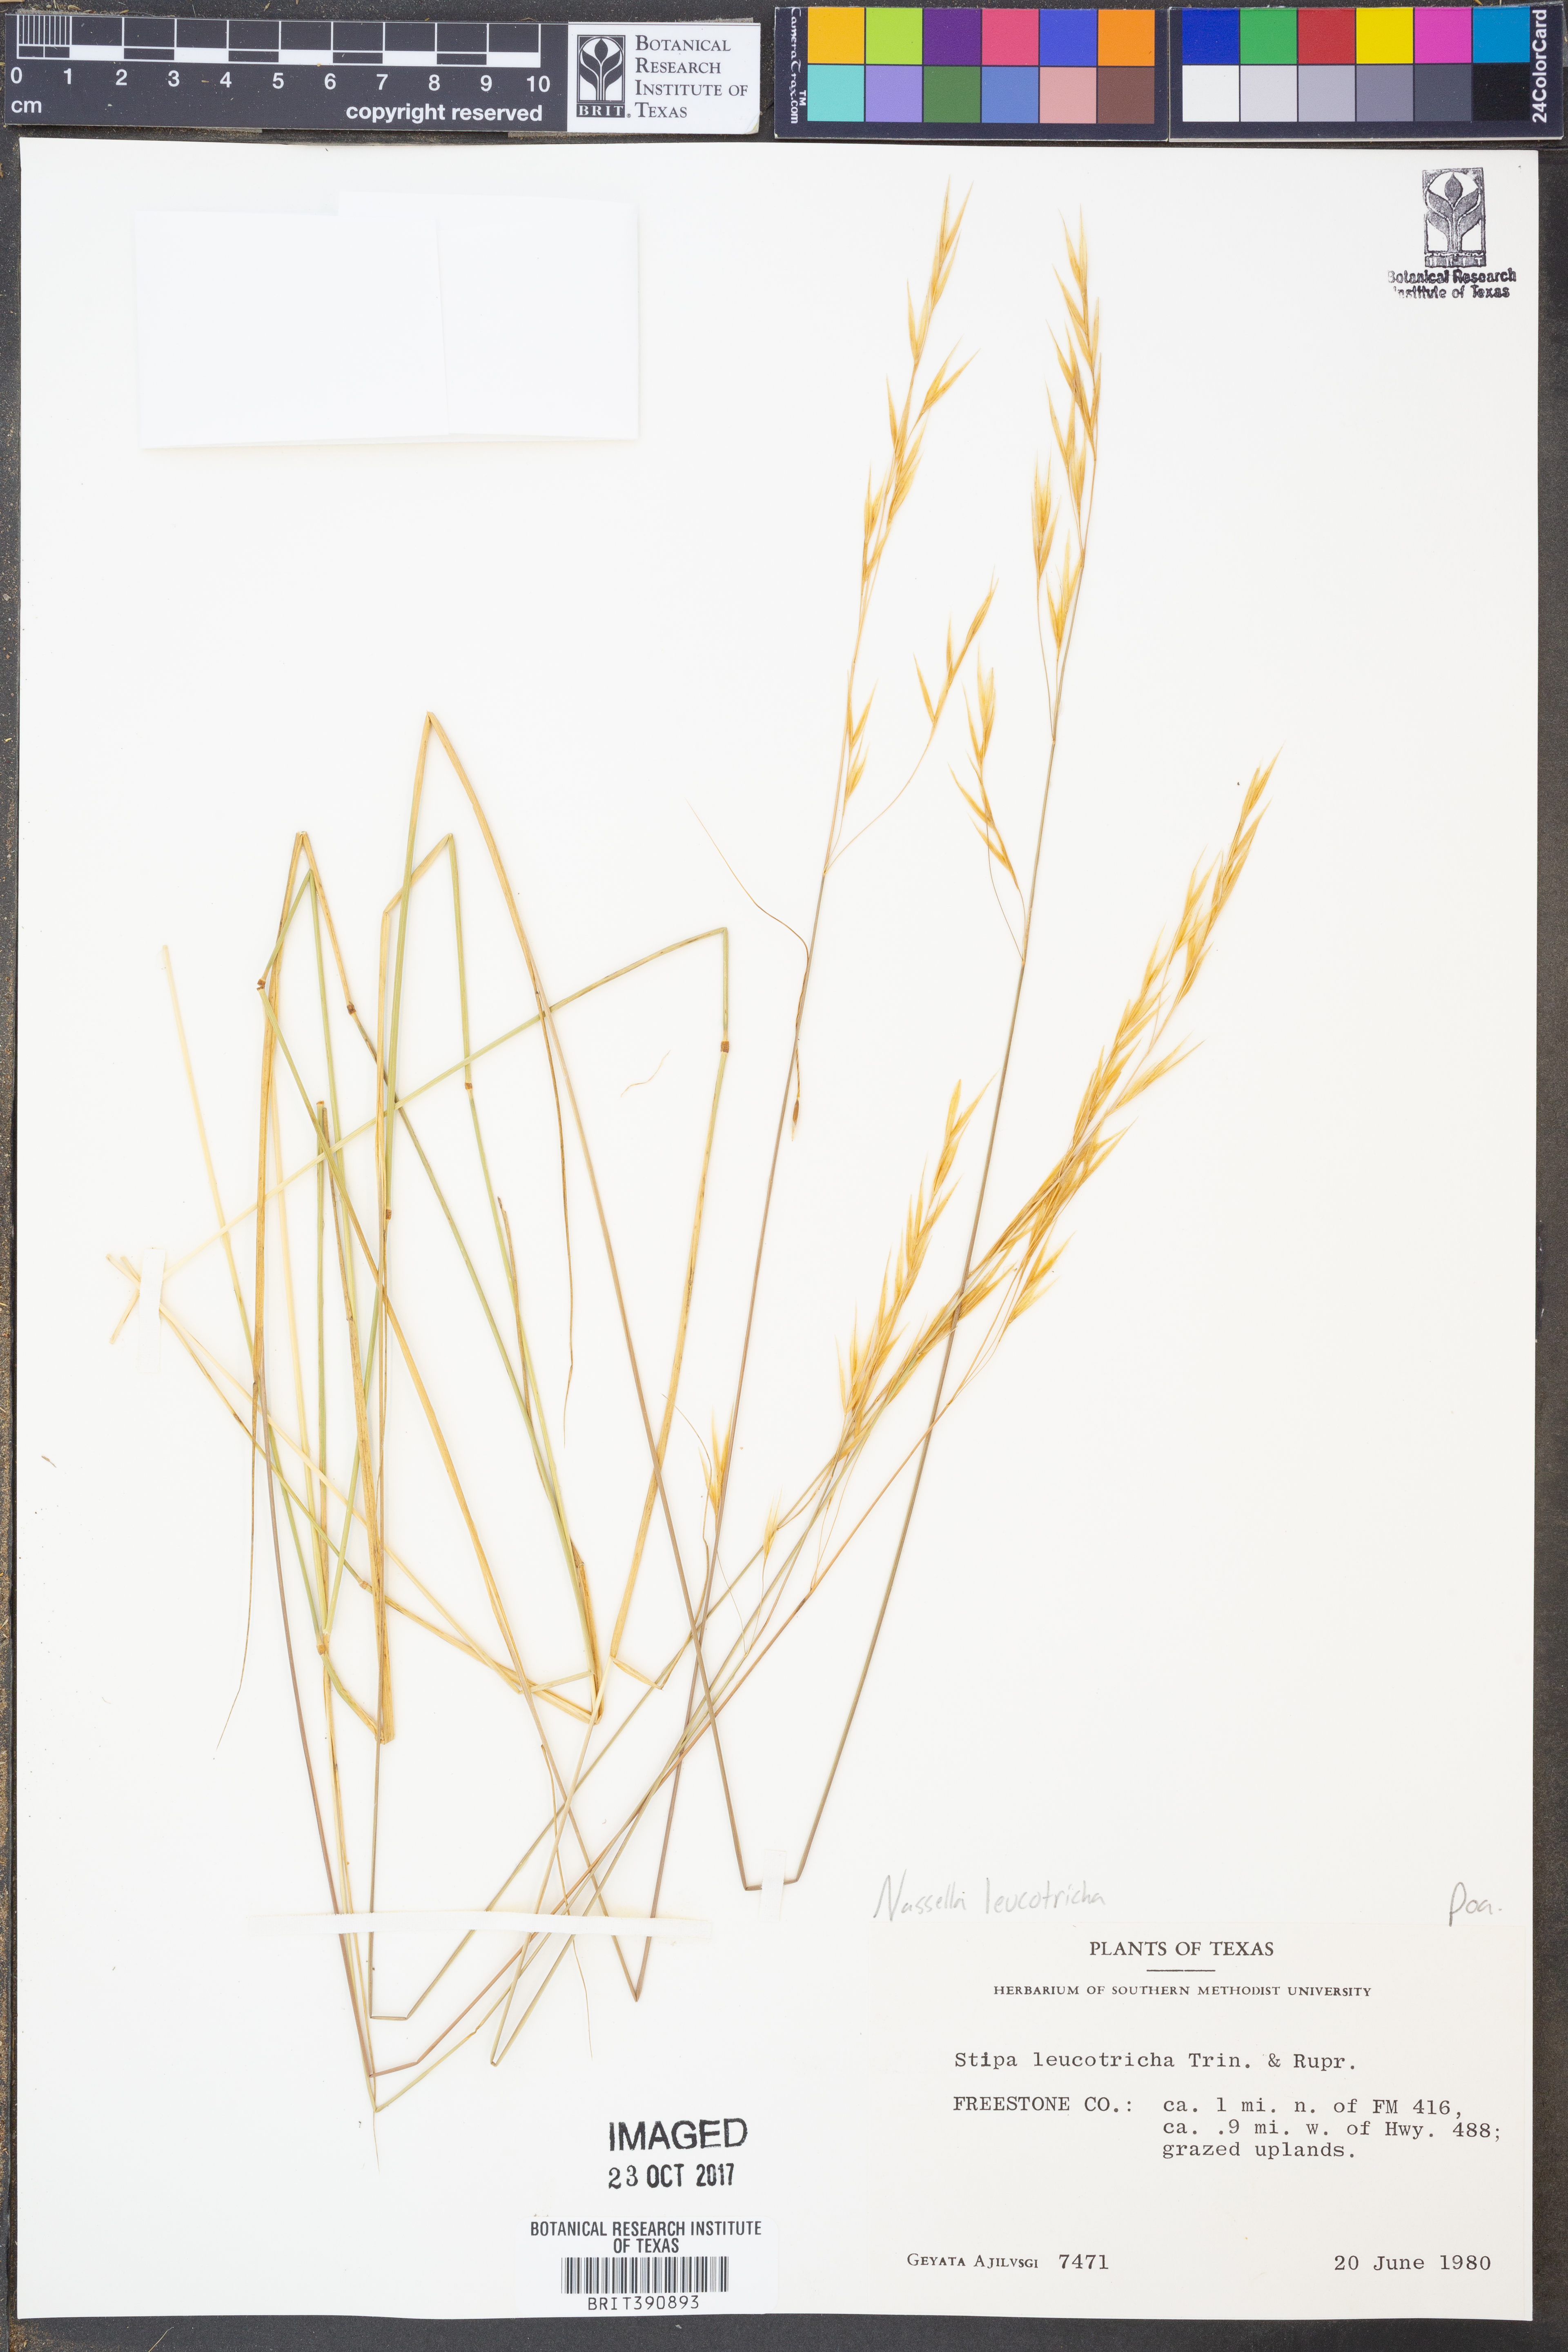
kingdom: Plantae
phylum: Tracheophyta
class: Liliopsida
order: Poales
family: Poaceae
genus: Nassella
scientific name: Nassella leucotricha
